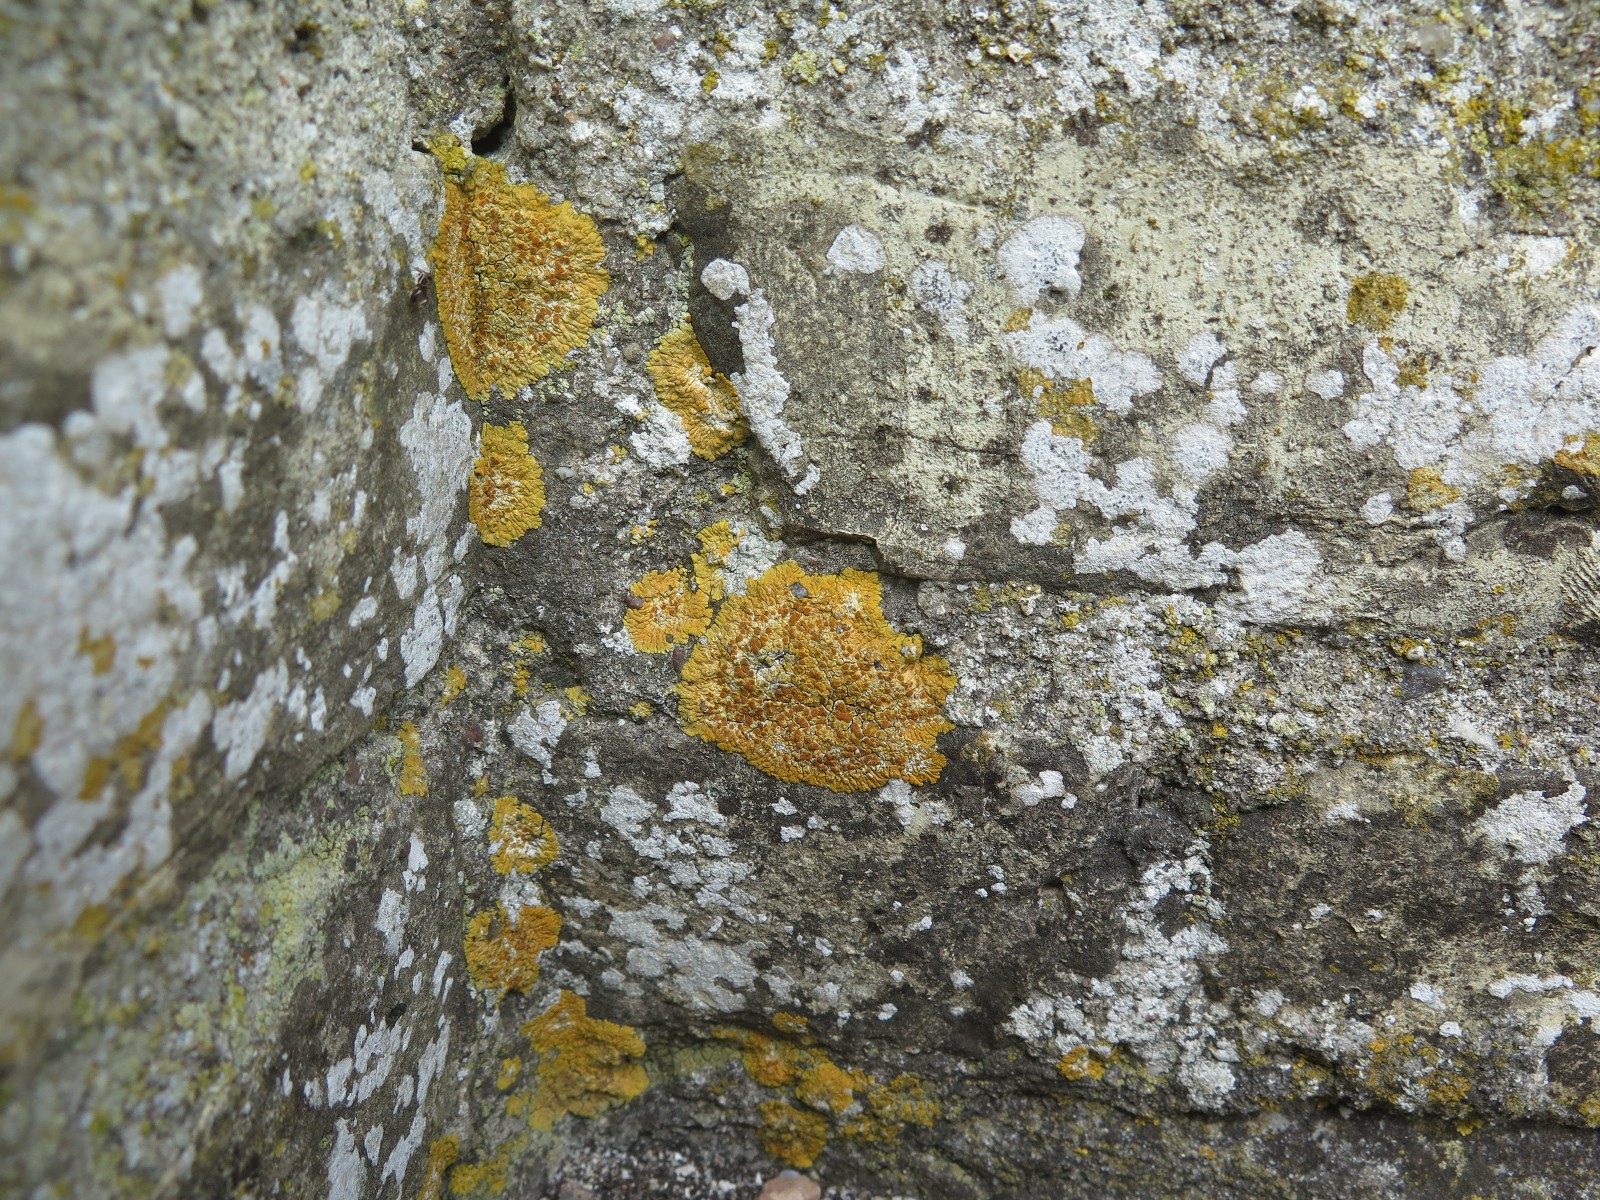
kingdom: Fungi
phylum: Ascomycota
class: Lecanoromycetes
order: Teloschistales
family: Teloschistaceae
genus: Variospora
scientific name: Variospora flavescens
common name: kalk-orangelav
